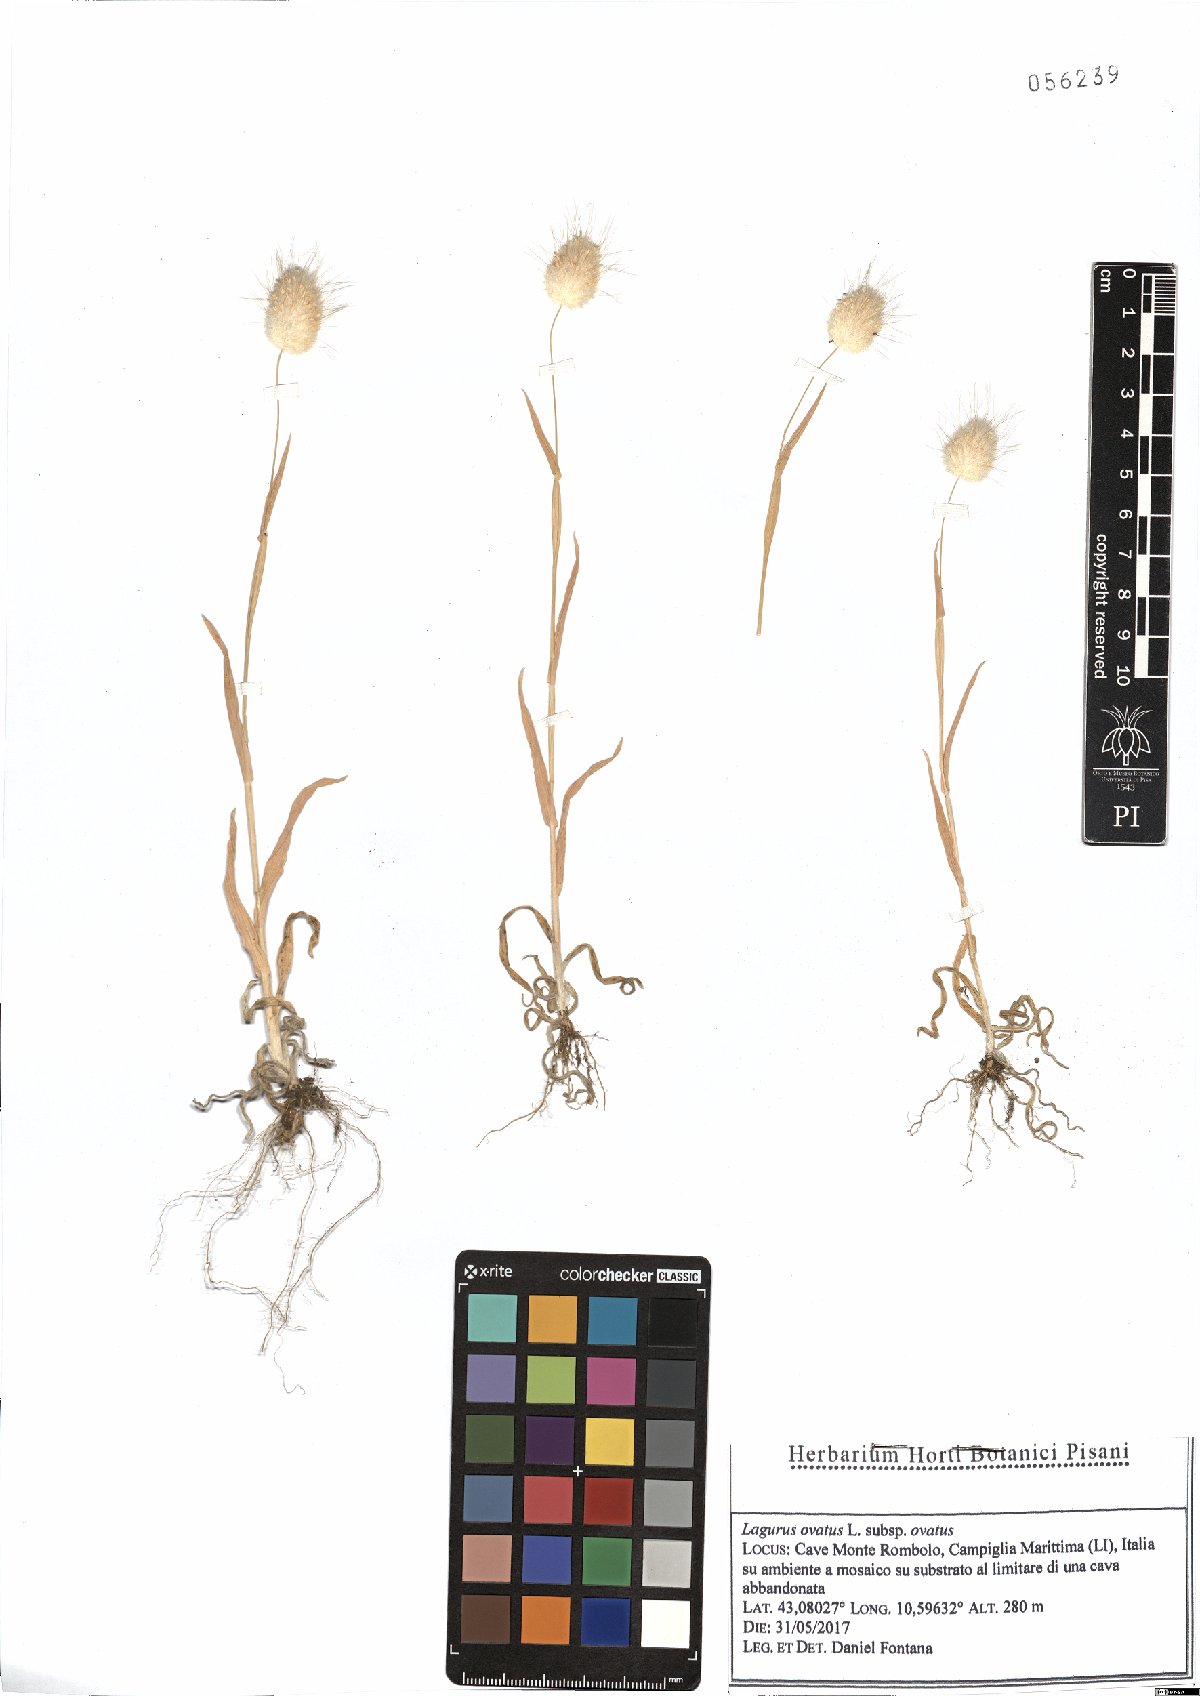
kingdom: Plantae
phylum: Tracheophyta
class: Liliopsida
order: Poales
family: Poaceae
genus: Lagurus
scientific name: Lagurus ovatus
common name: Hare's-tail
